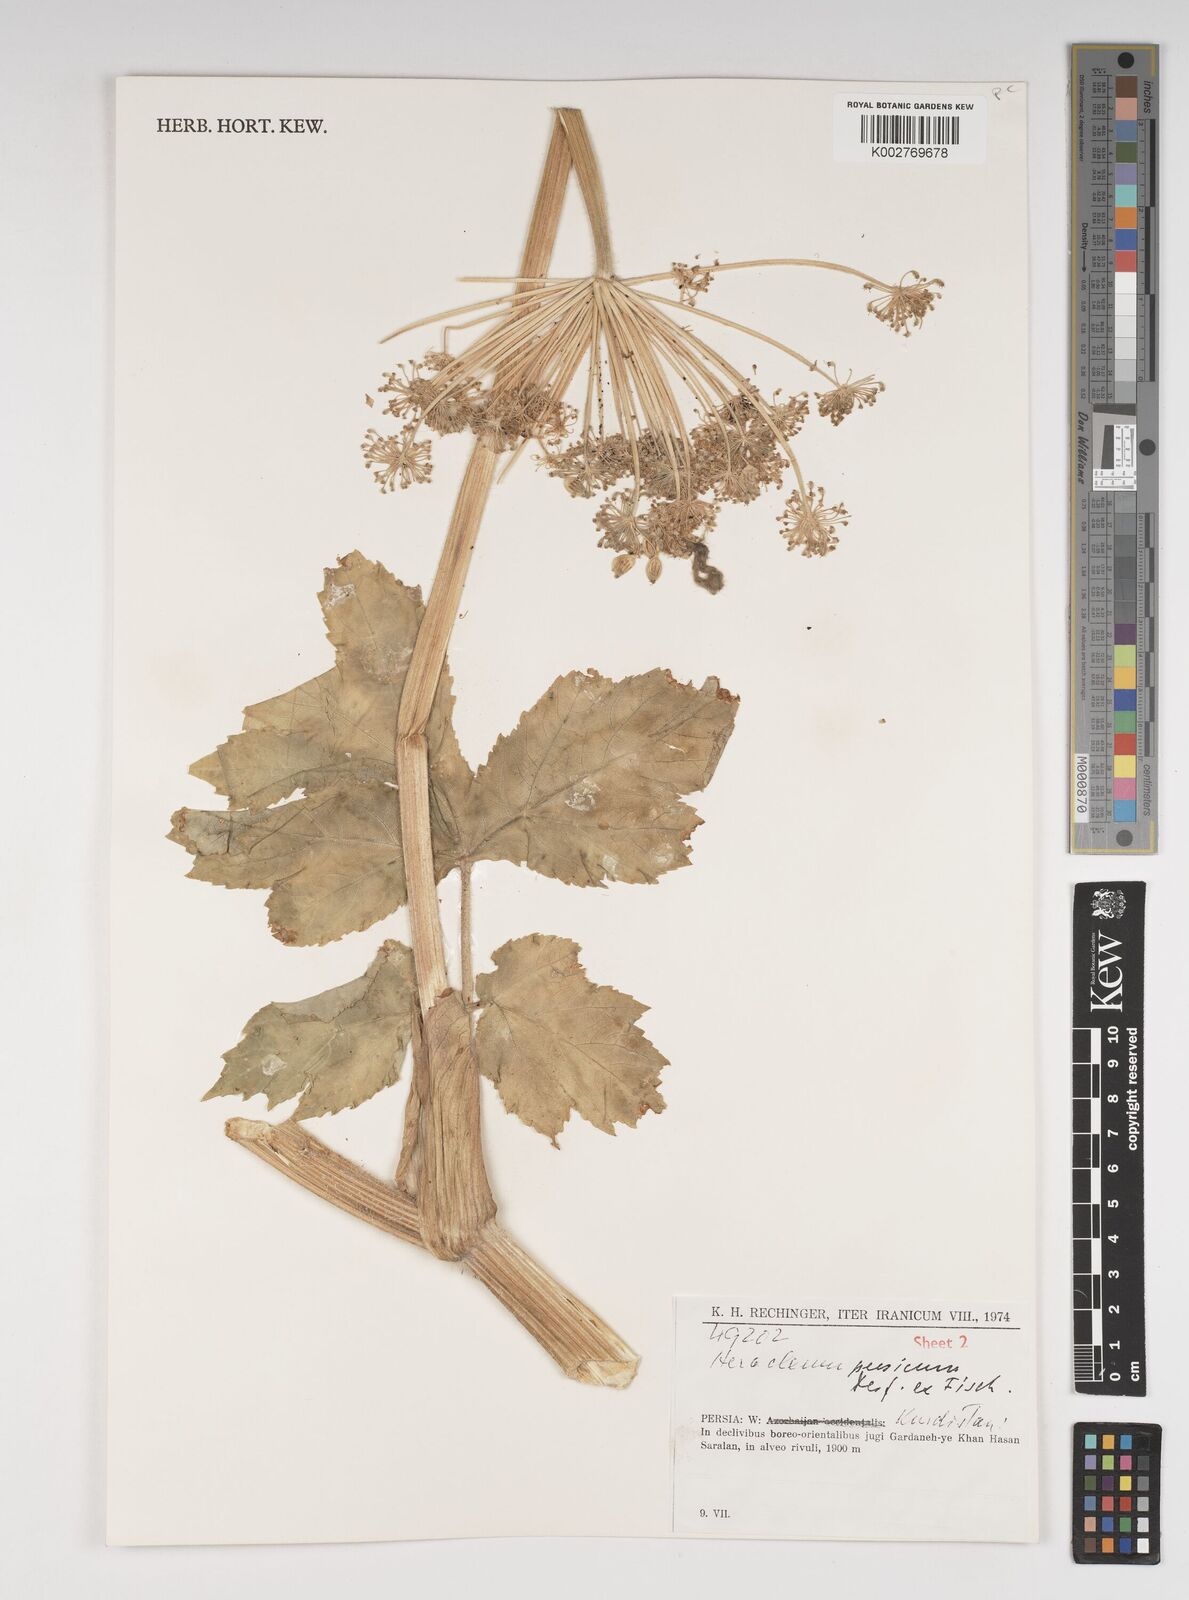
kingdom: Plantae
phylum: Tracheophyta
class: Magnoliopsida
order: Apiales
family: Apiaceae
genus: Heracleum
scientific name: Heracleum persicum
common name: Persian hogweed
